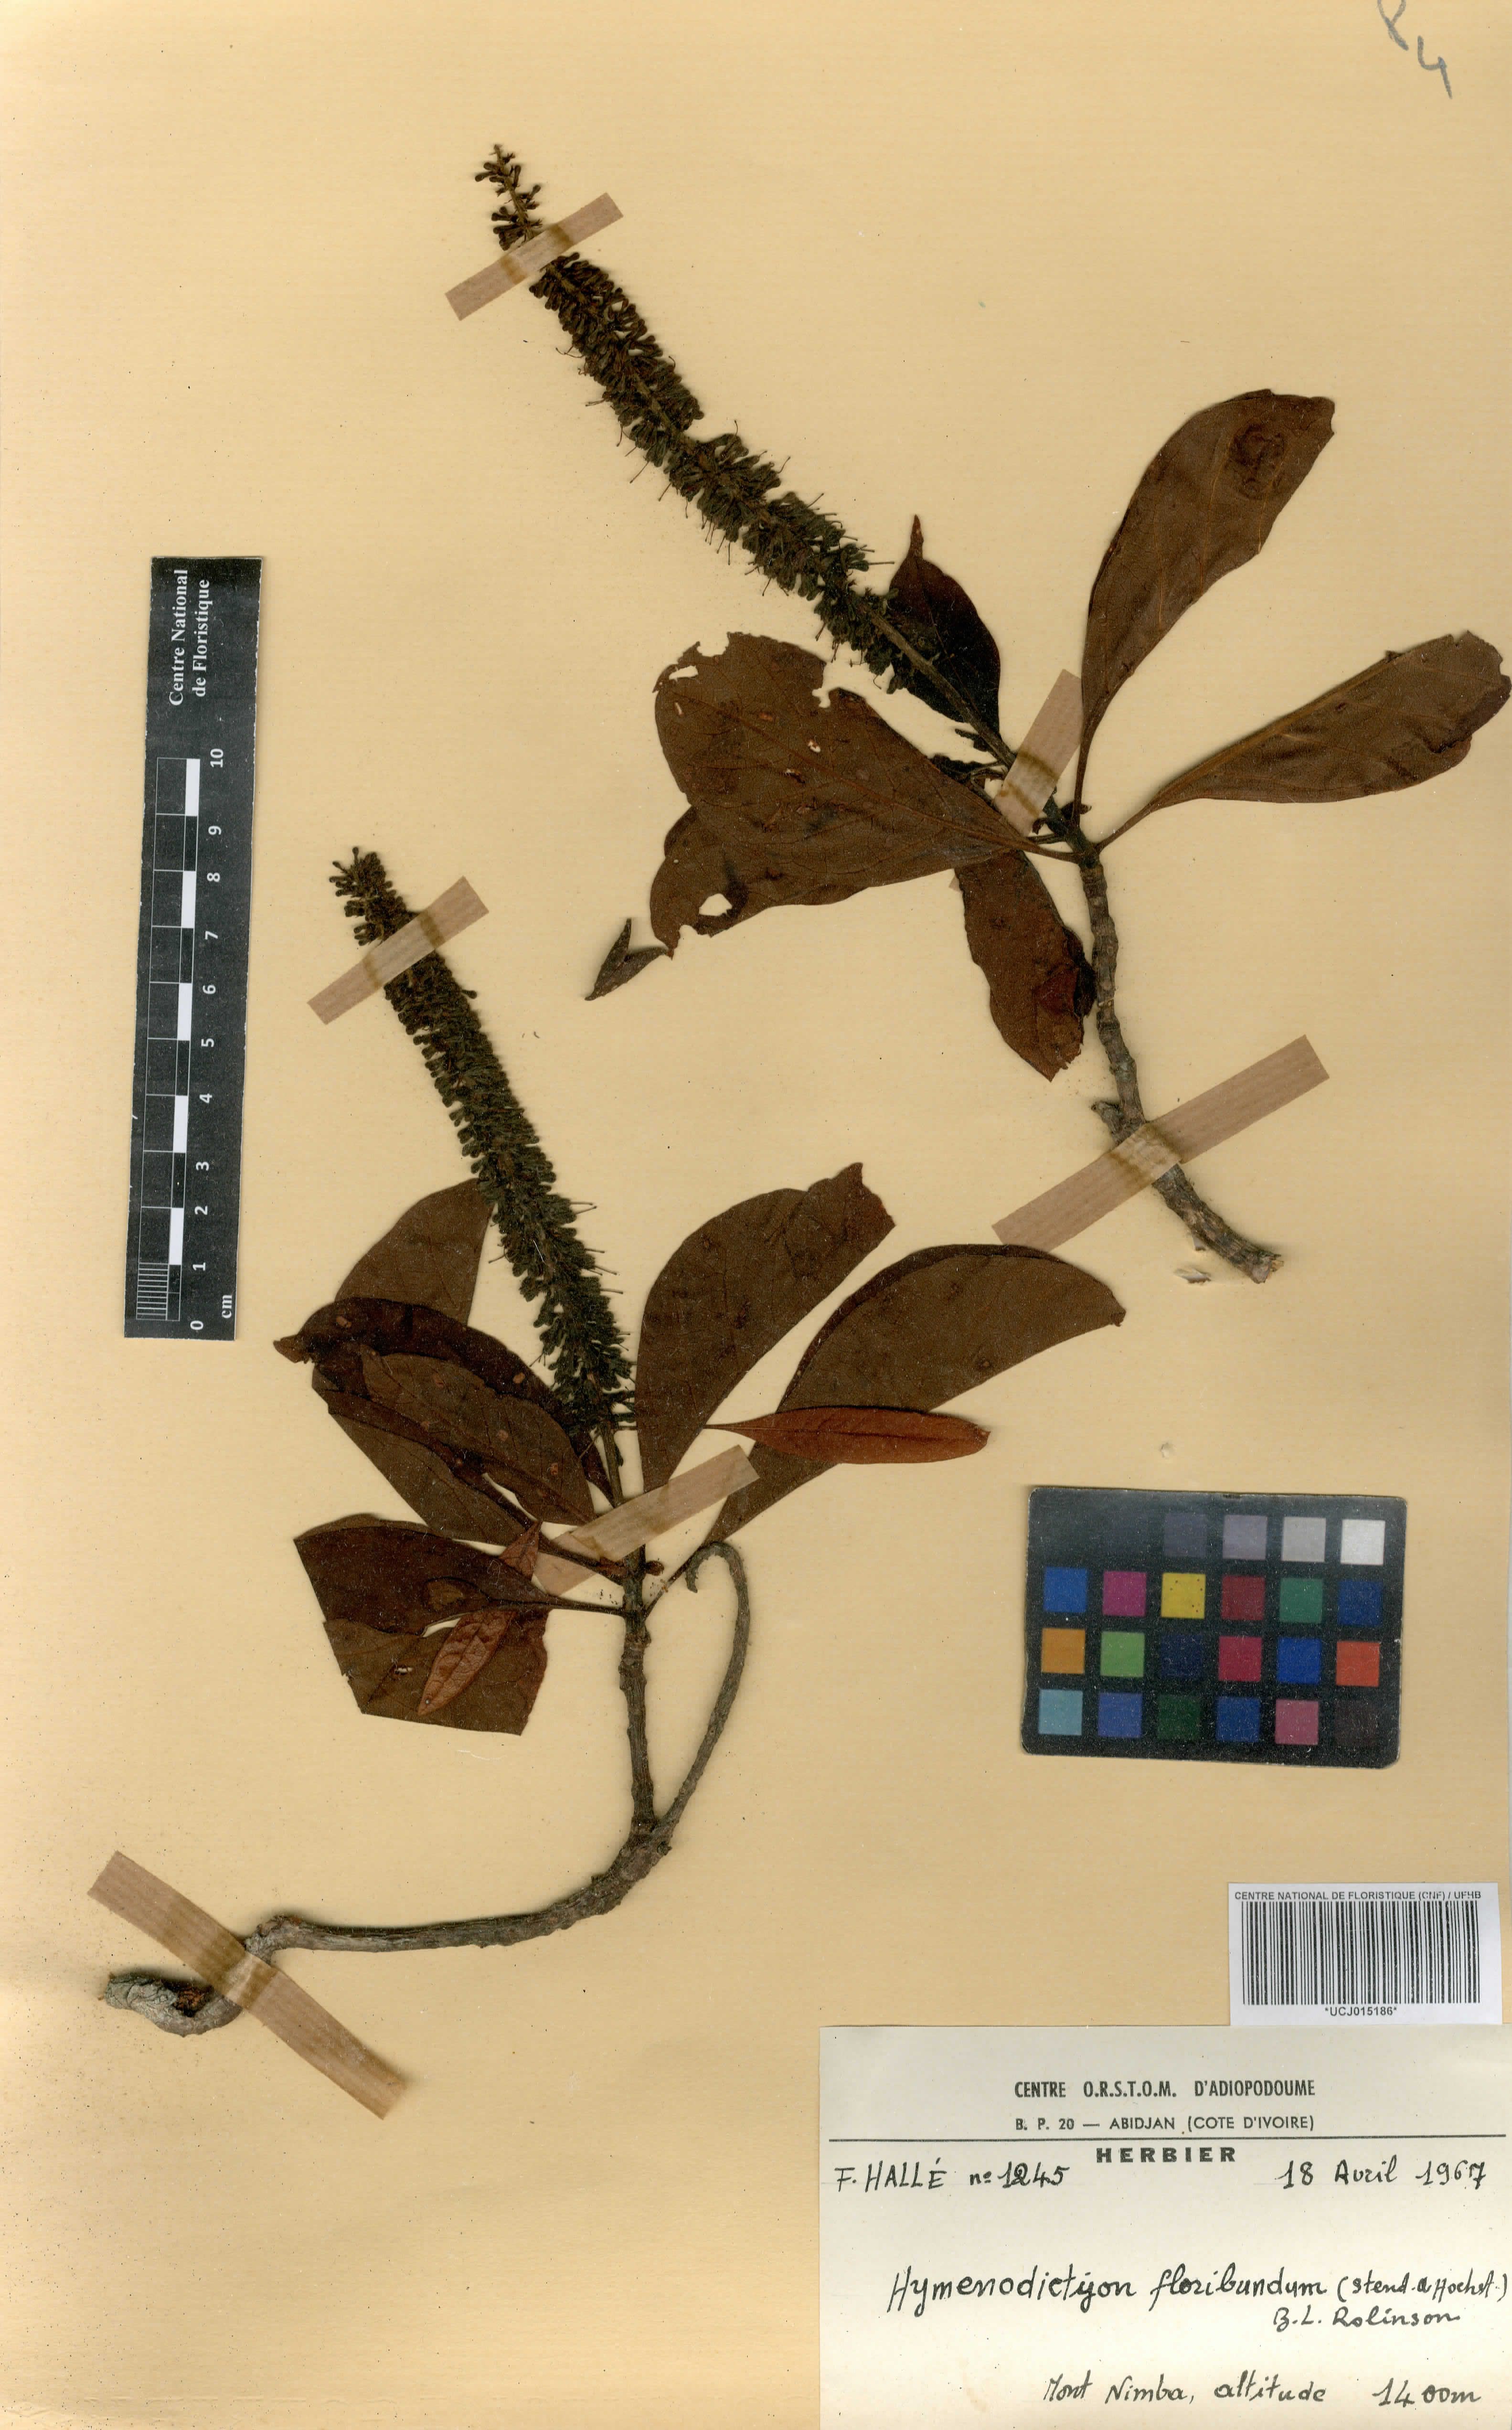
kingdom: Plantae
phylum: Tracheophyta
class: Magnoliopsida
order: Gentianales
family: Rubiaceae
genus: Hymenodictyon
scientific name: Hymenodictyon floribundum
